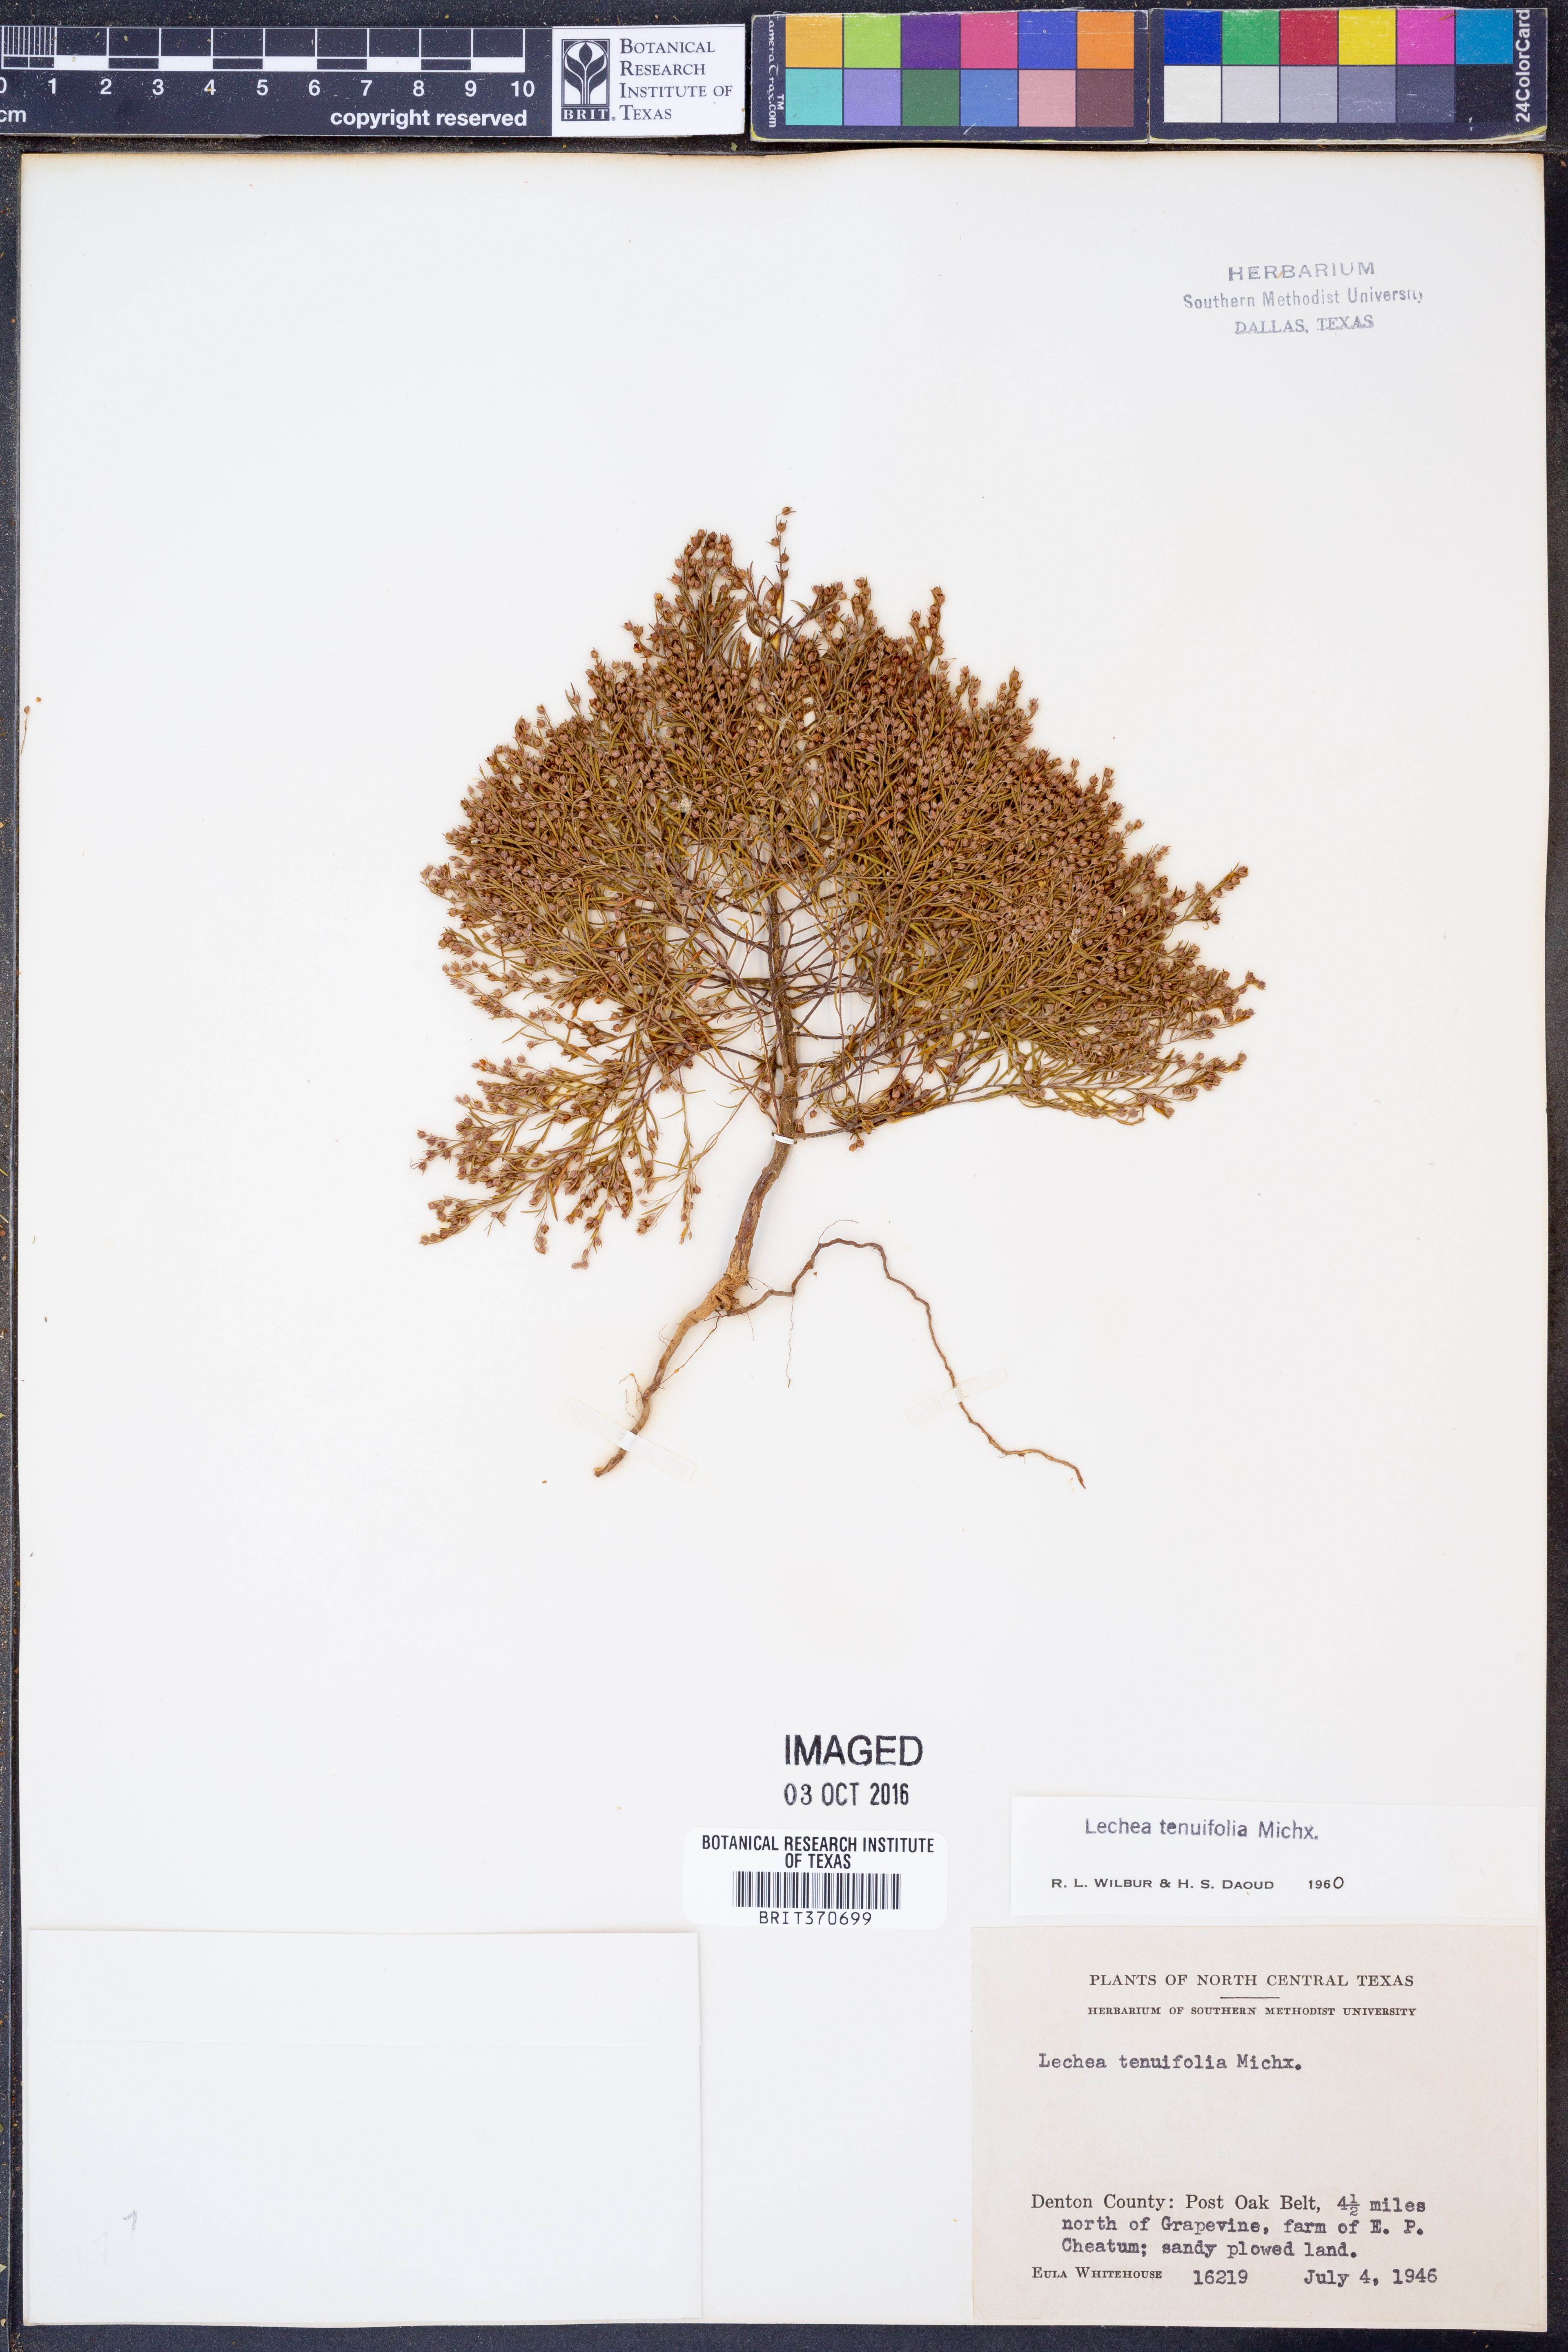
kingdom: Plantae
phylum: Tracheophyta
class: Magnoliopsida
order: Malvales
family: Cistaceae
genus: Lechea
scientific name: Lechea tenuifolia
